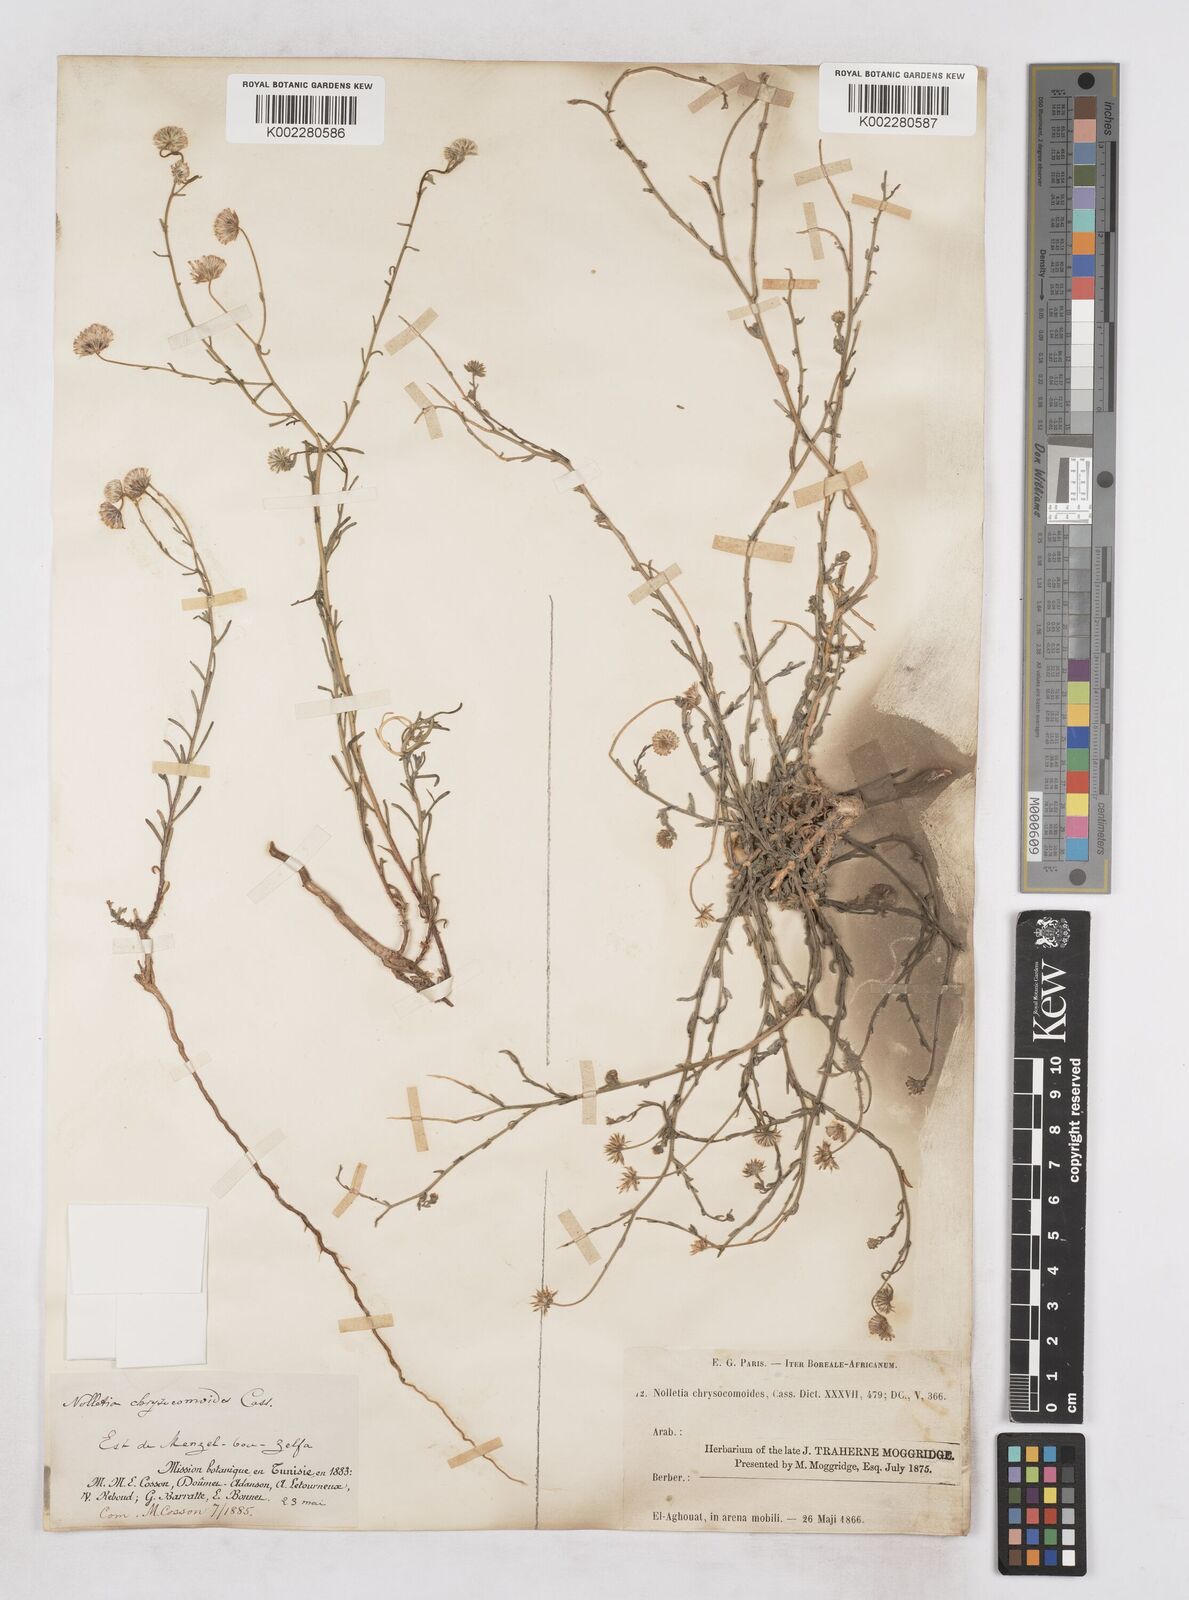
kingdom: Plantae
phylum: Tracheophyta
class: Magnoliopsida
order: Asterales
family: Asteraceae
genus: Nolletia
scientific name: Nolletia chrysocomoides
